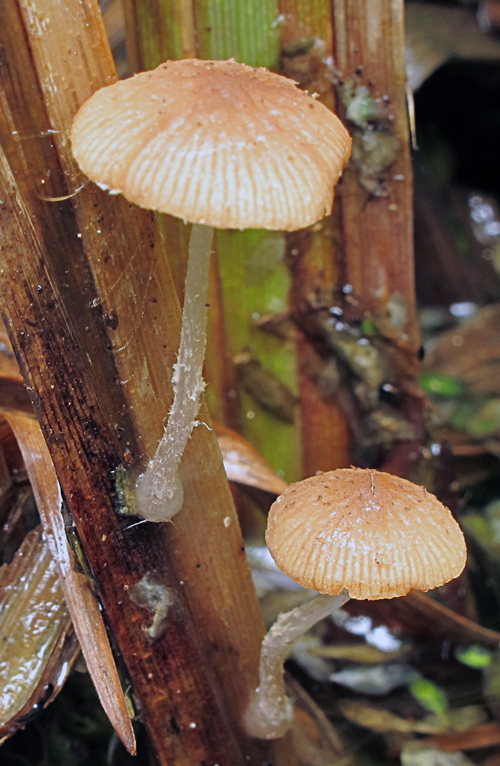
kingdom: Fungi
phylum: Basidiomycota
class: Agaricomycetes
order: Agaricales
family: Psathyrellaceae
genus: Candolleomyces
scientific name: Candolleomyces typhae
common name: dunhammer-mørkhat
